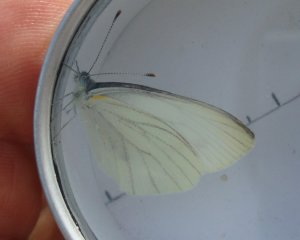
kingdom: Animalia
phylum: Arthropoda
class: Insecta
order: Lepidoptera
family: Pieridae
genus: Pieris
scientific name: Pieris oleracea
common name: Mustard White
